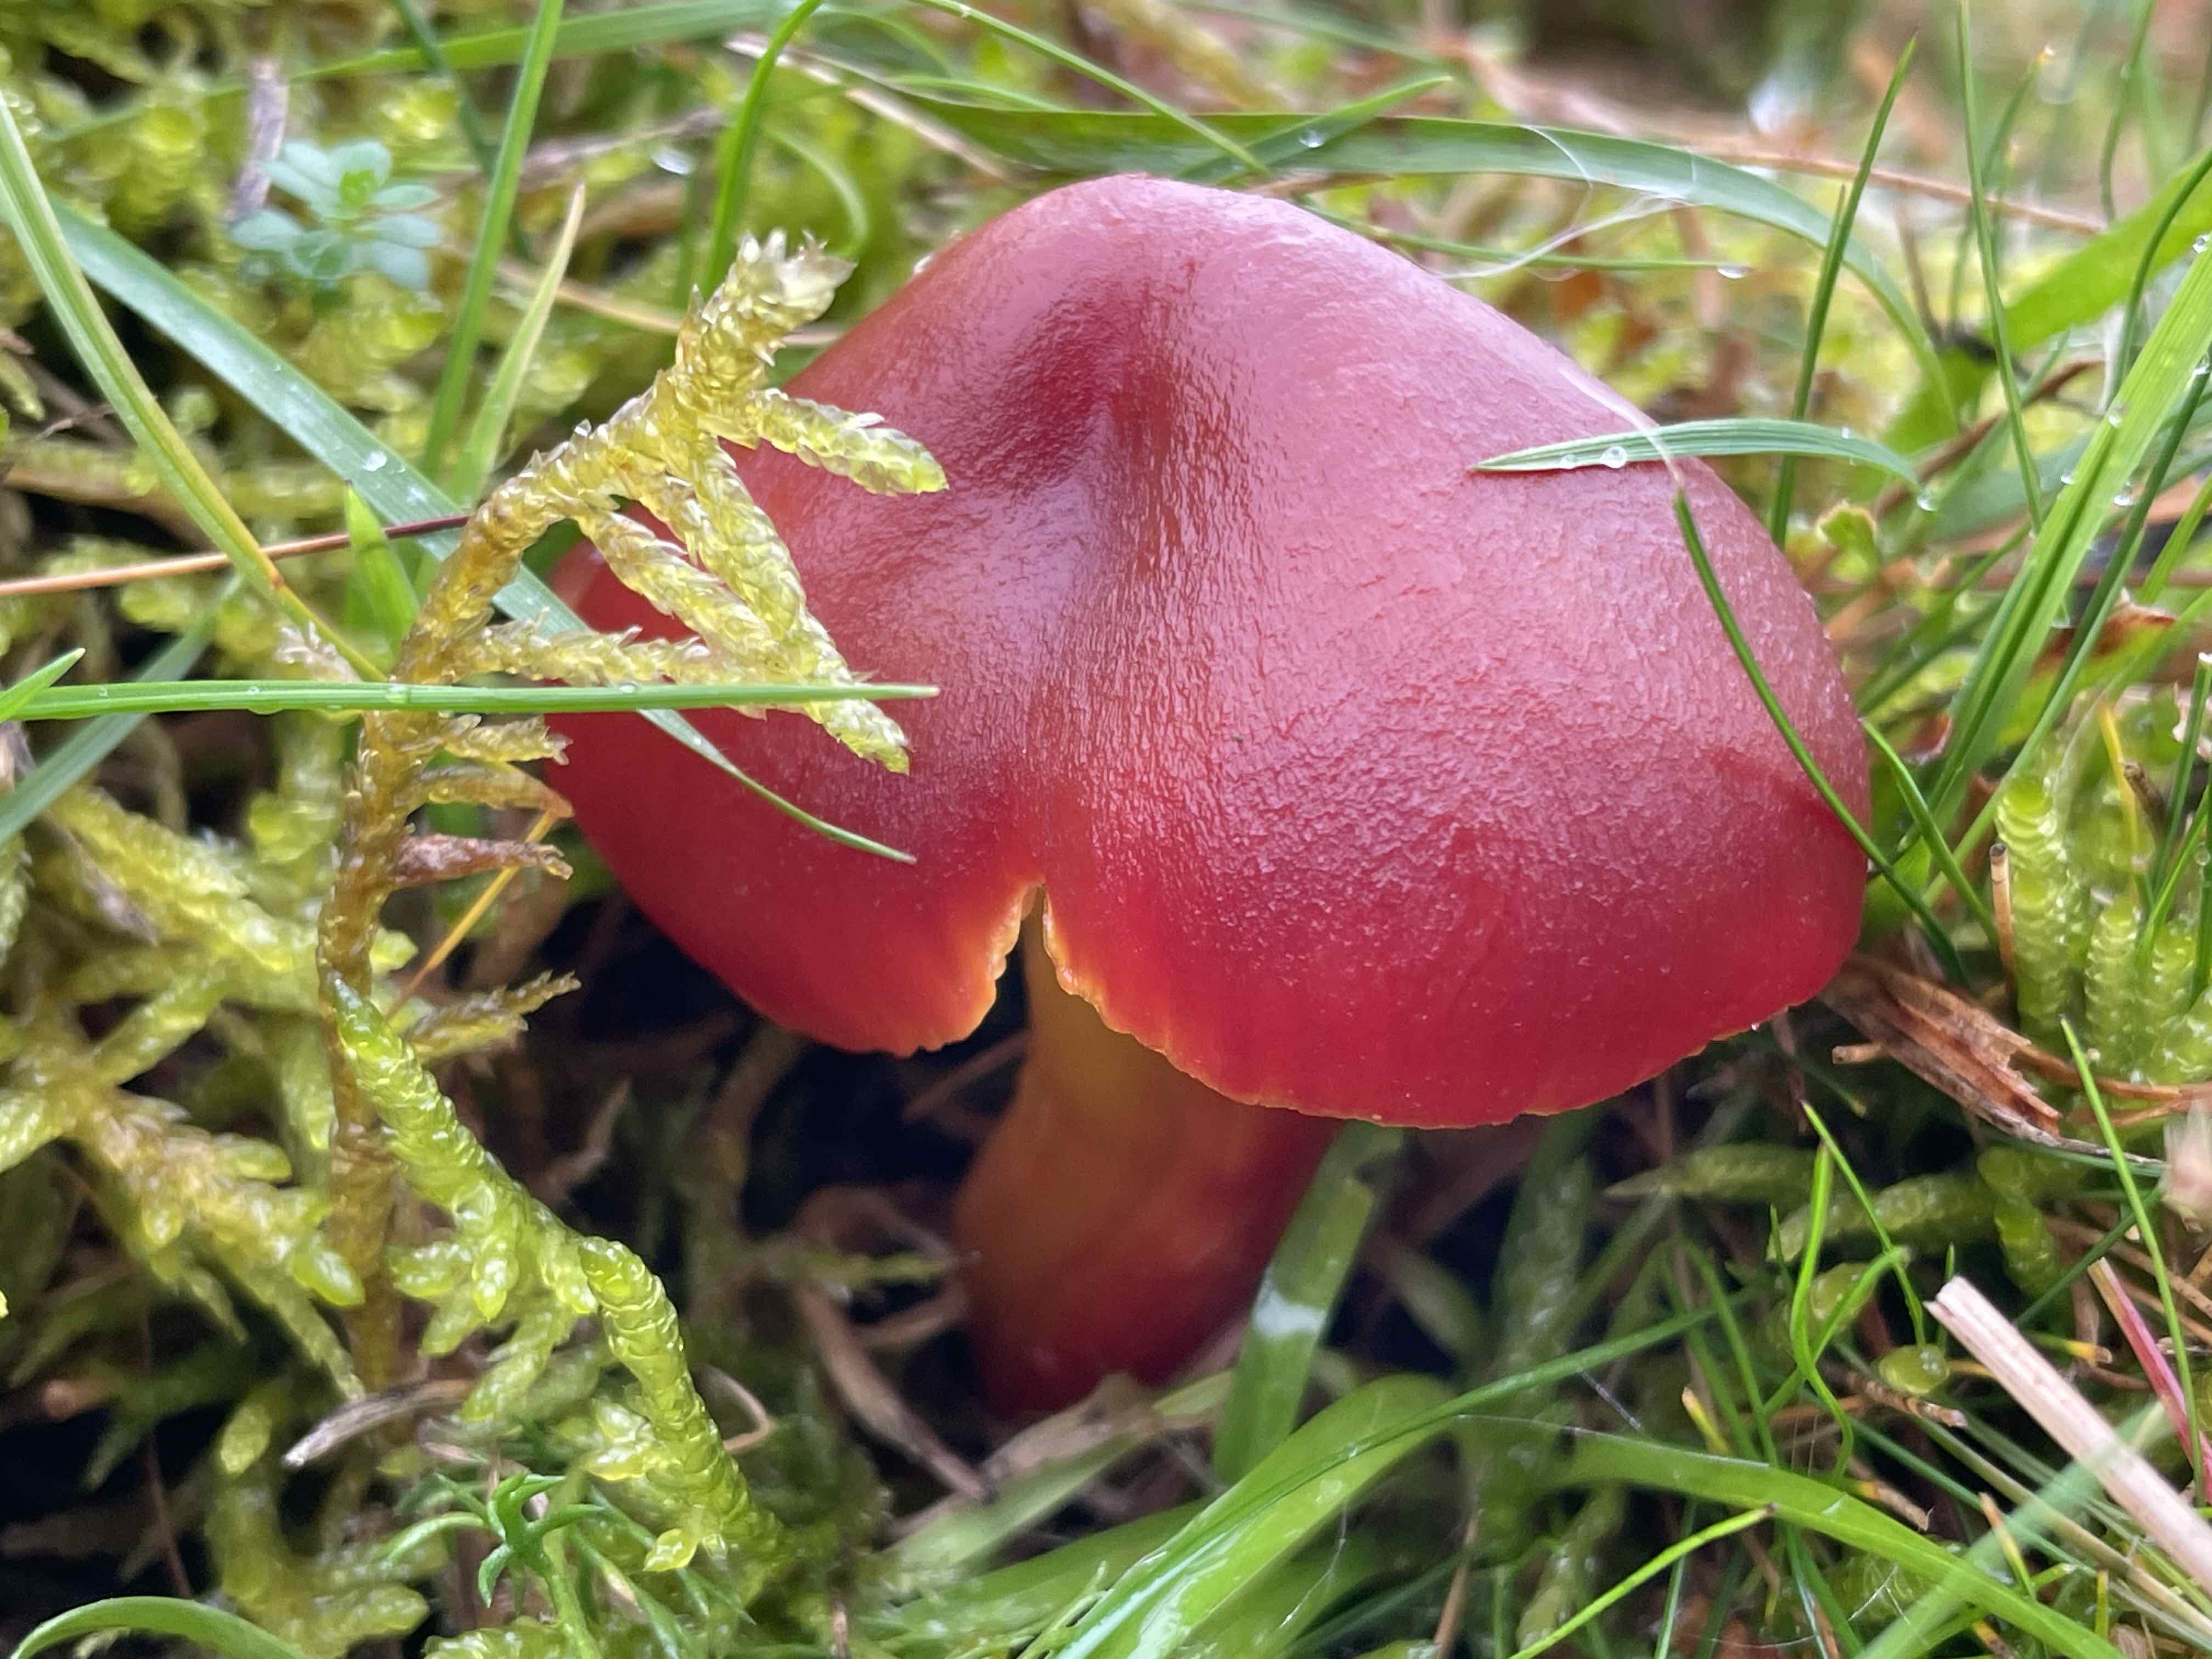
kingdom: Fungi
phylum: Basidiomycota
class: Agaricomycetes
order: Agaricales
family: Hygrophoraceae
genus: Hygrocybe
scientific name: Hygrocybe punicea
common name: skarlagen-vokshat
